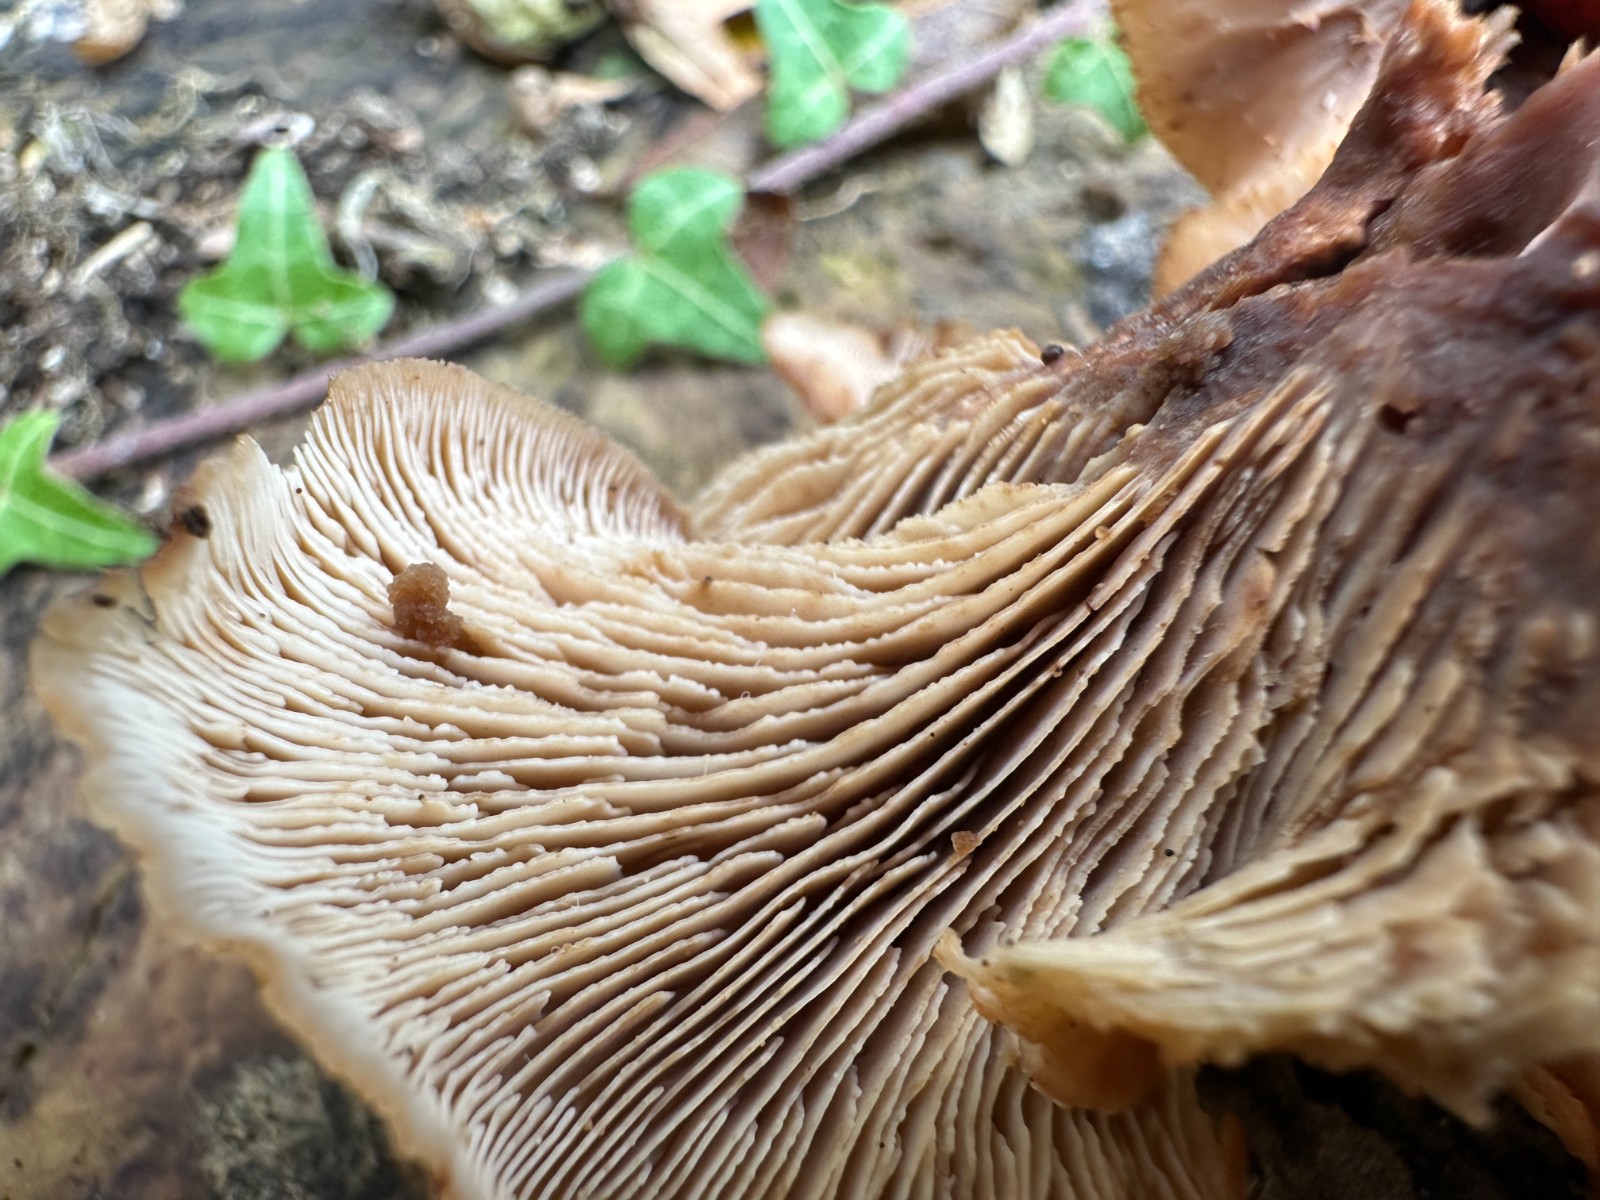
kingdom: Fungi
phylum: Basidiomycota
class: Agaricomycetes
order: Russulales
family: Auriscalpiaceae
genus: Lentinellus
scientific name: Lentinellus cochleatus
